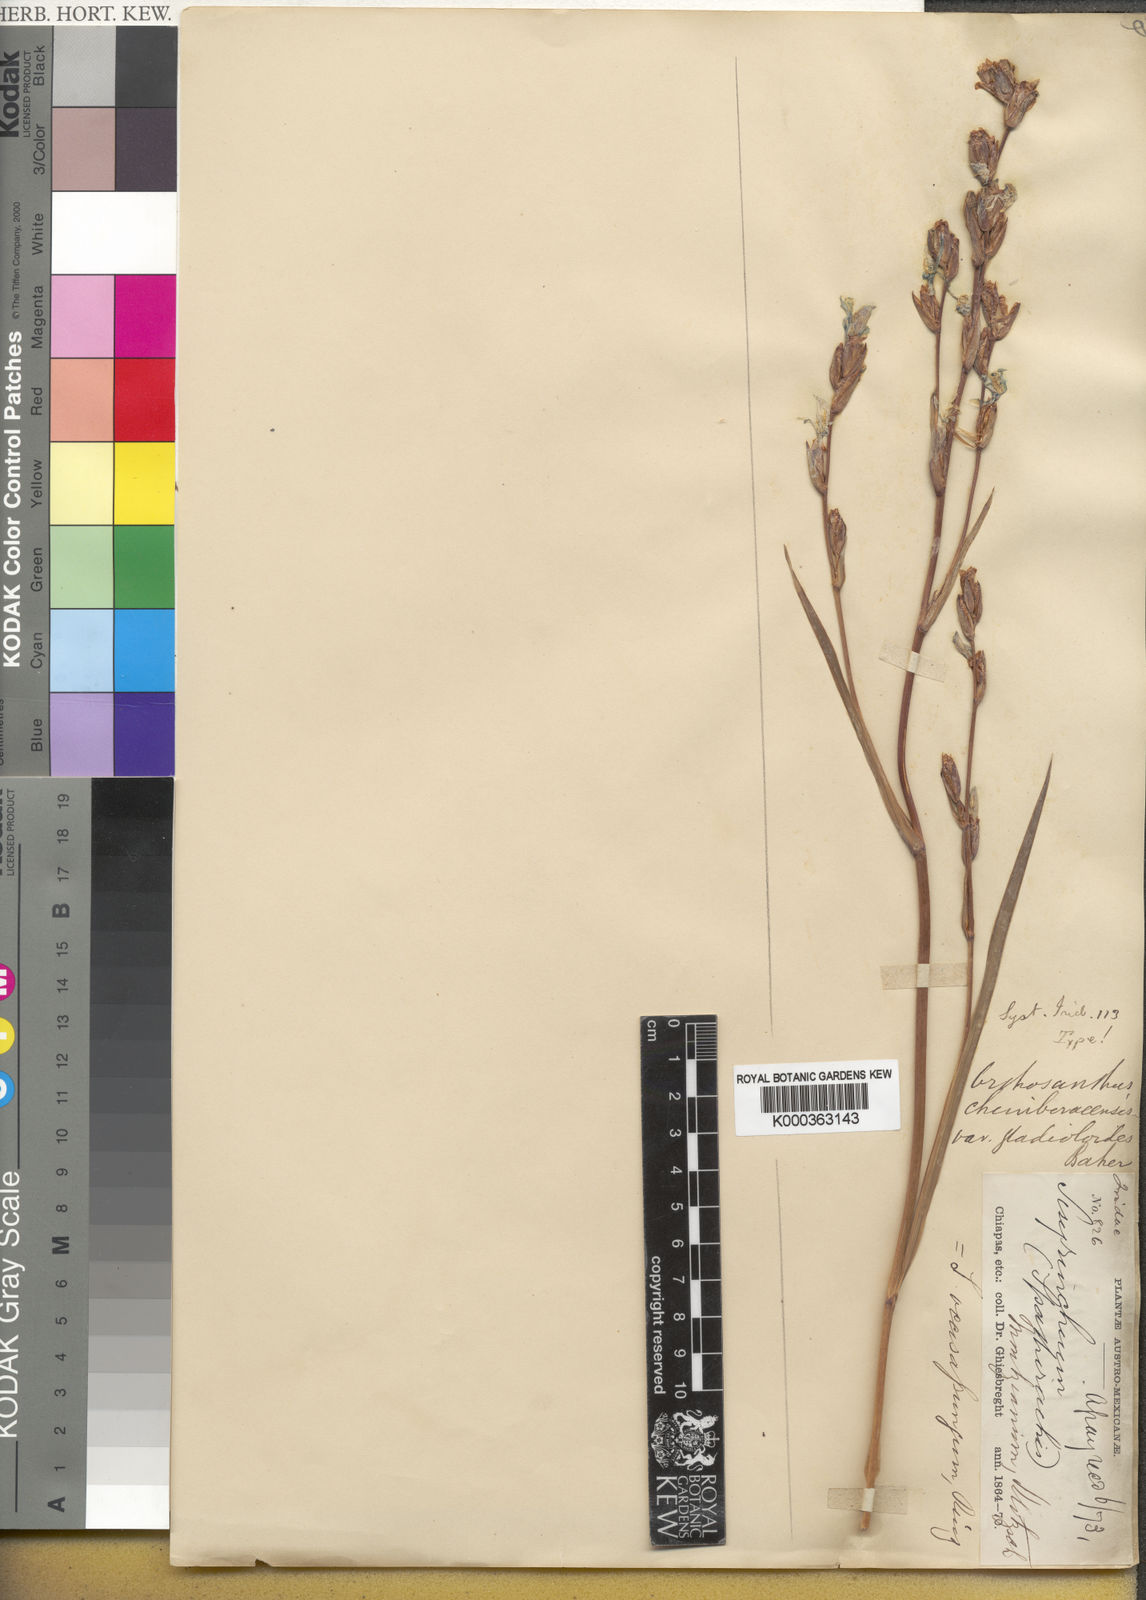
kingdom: Plantae
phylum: Tracheophyta
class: Liliopsida
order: Asparagales
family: Iridaceae
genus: Orthrosanthus
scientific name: Orthrosanthus chimboracensis
